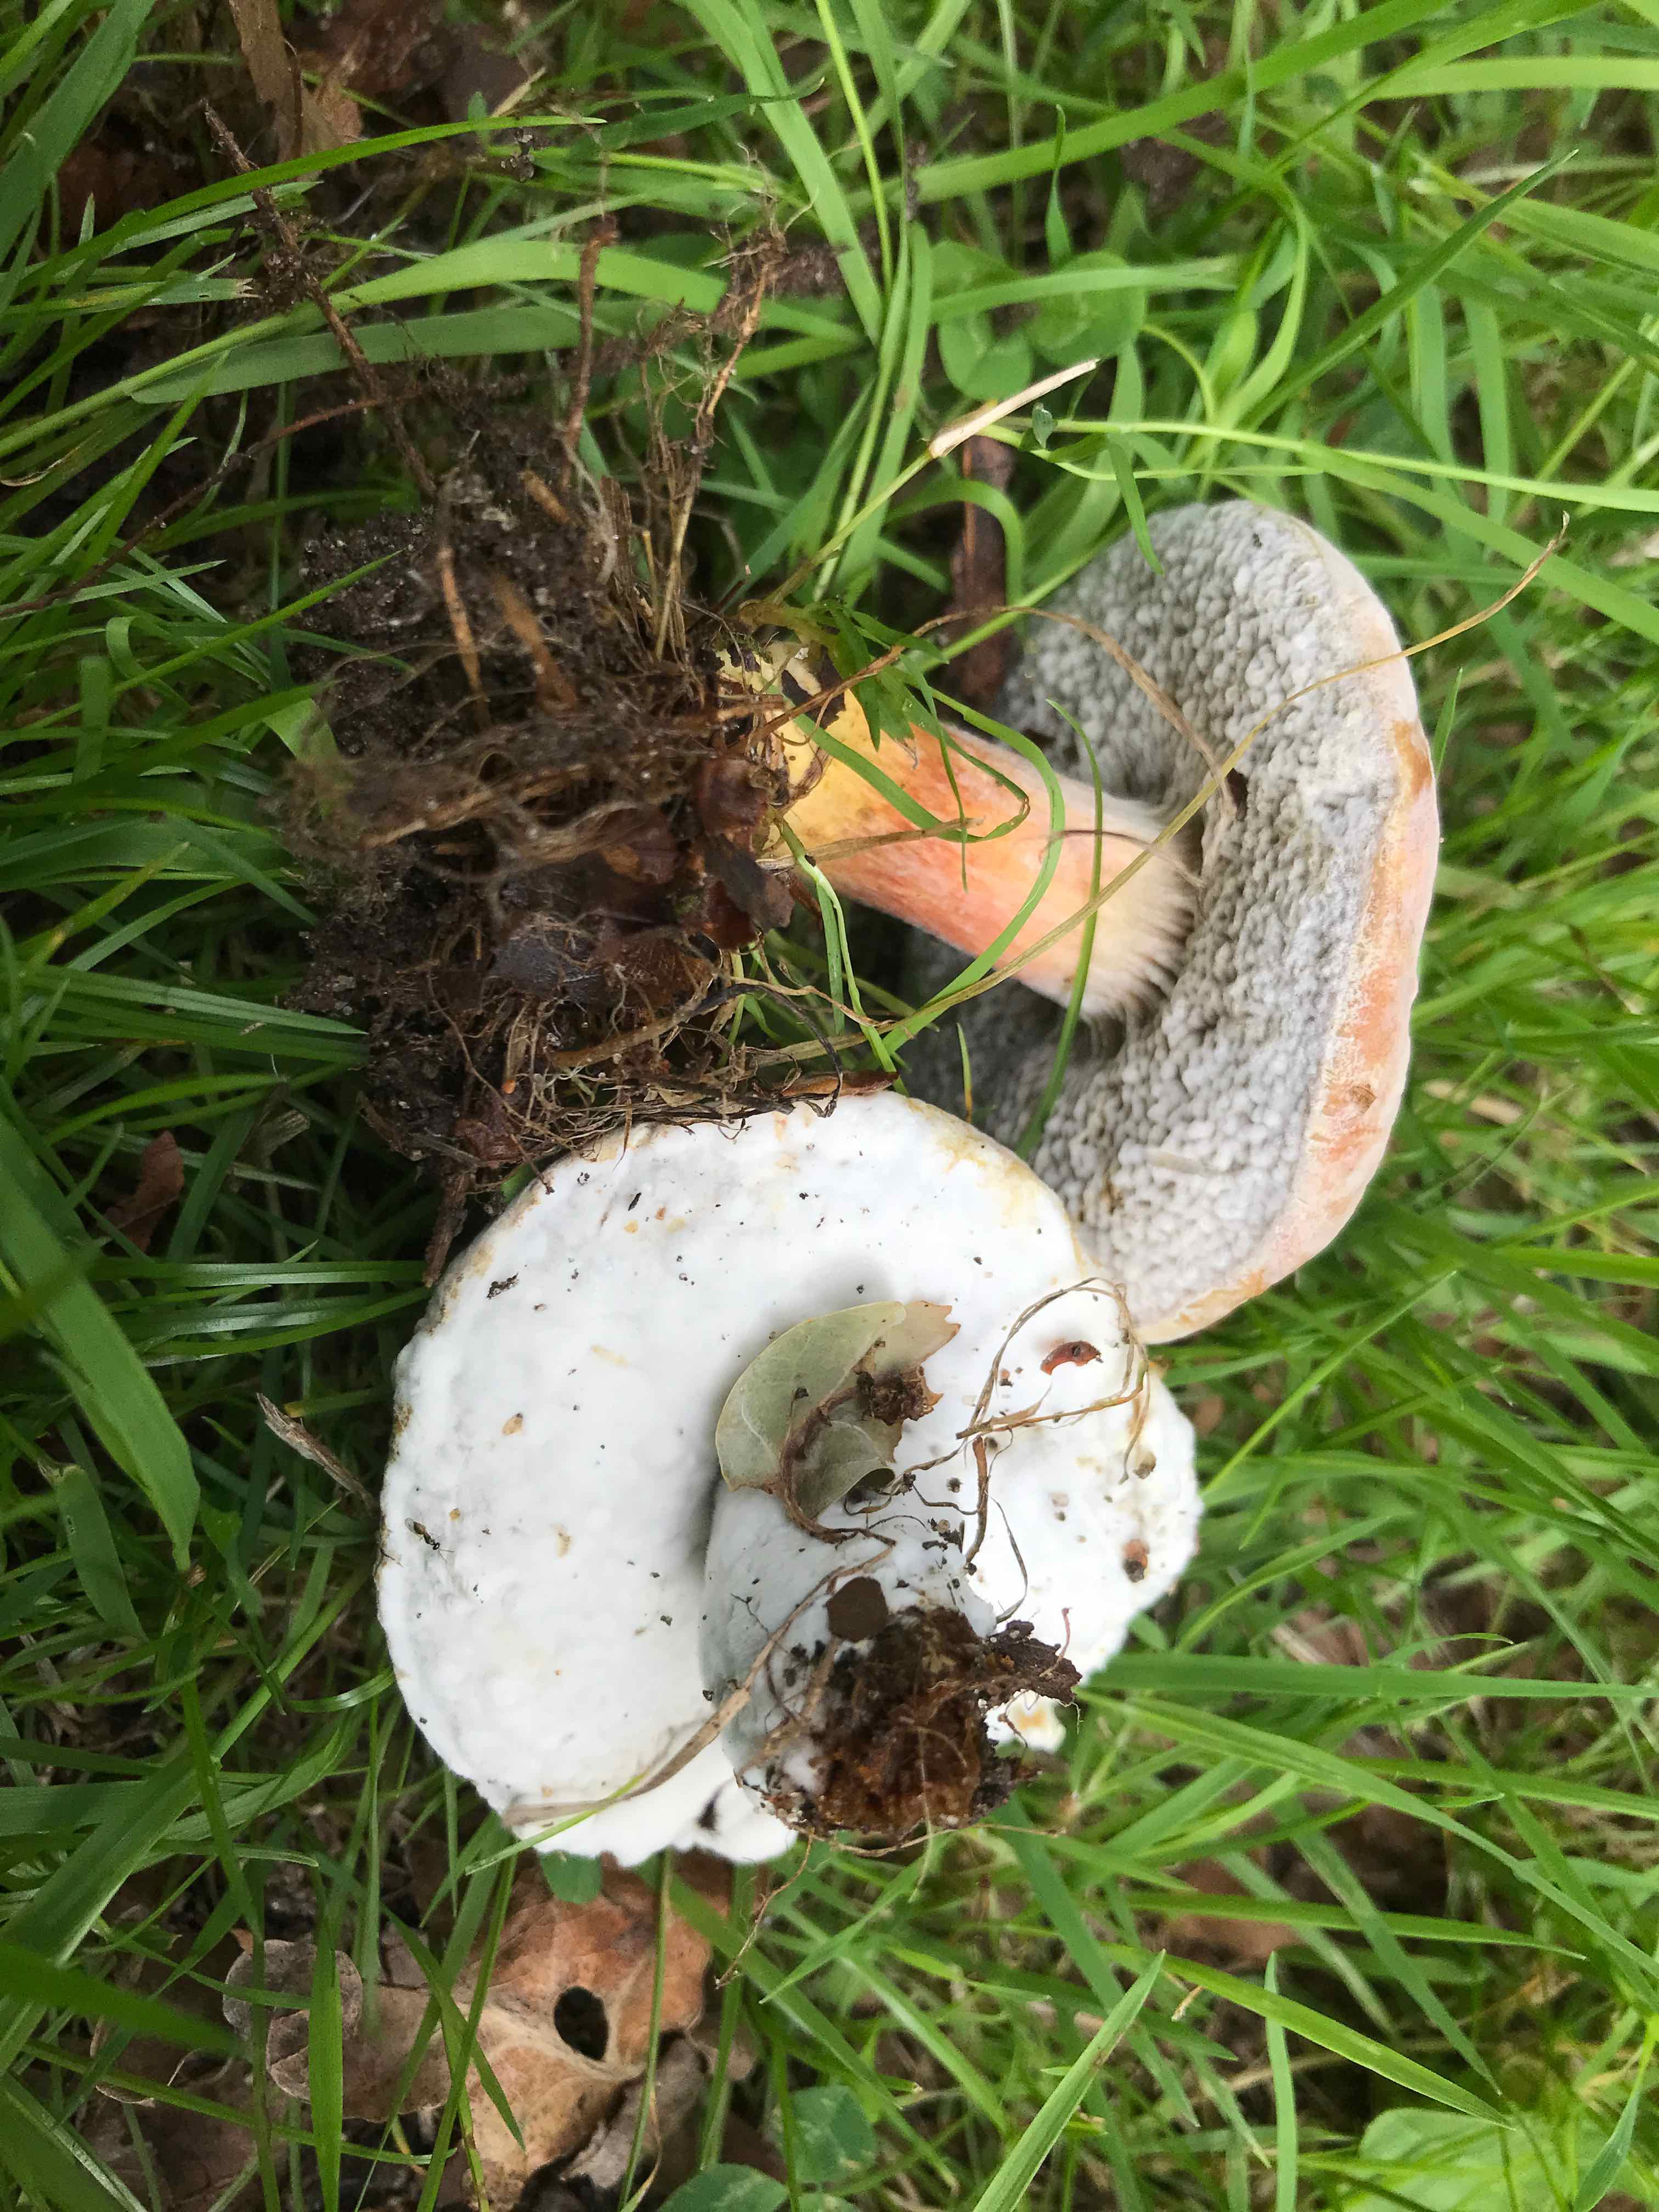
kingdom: Fungi
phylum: Ascomycota
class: Sordariomycetes
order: Hypocreales
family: Hypocreaceae
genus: Hypomyces
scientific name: Hypomyces microspermus
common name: dværgrørhat-snylteskorpe
